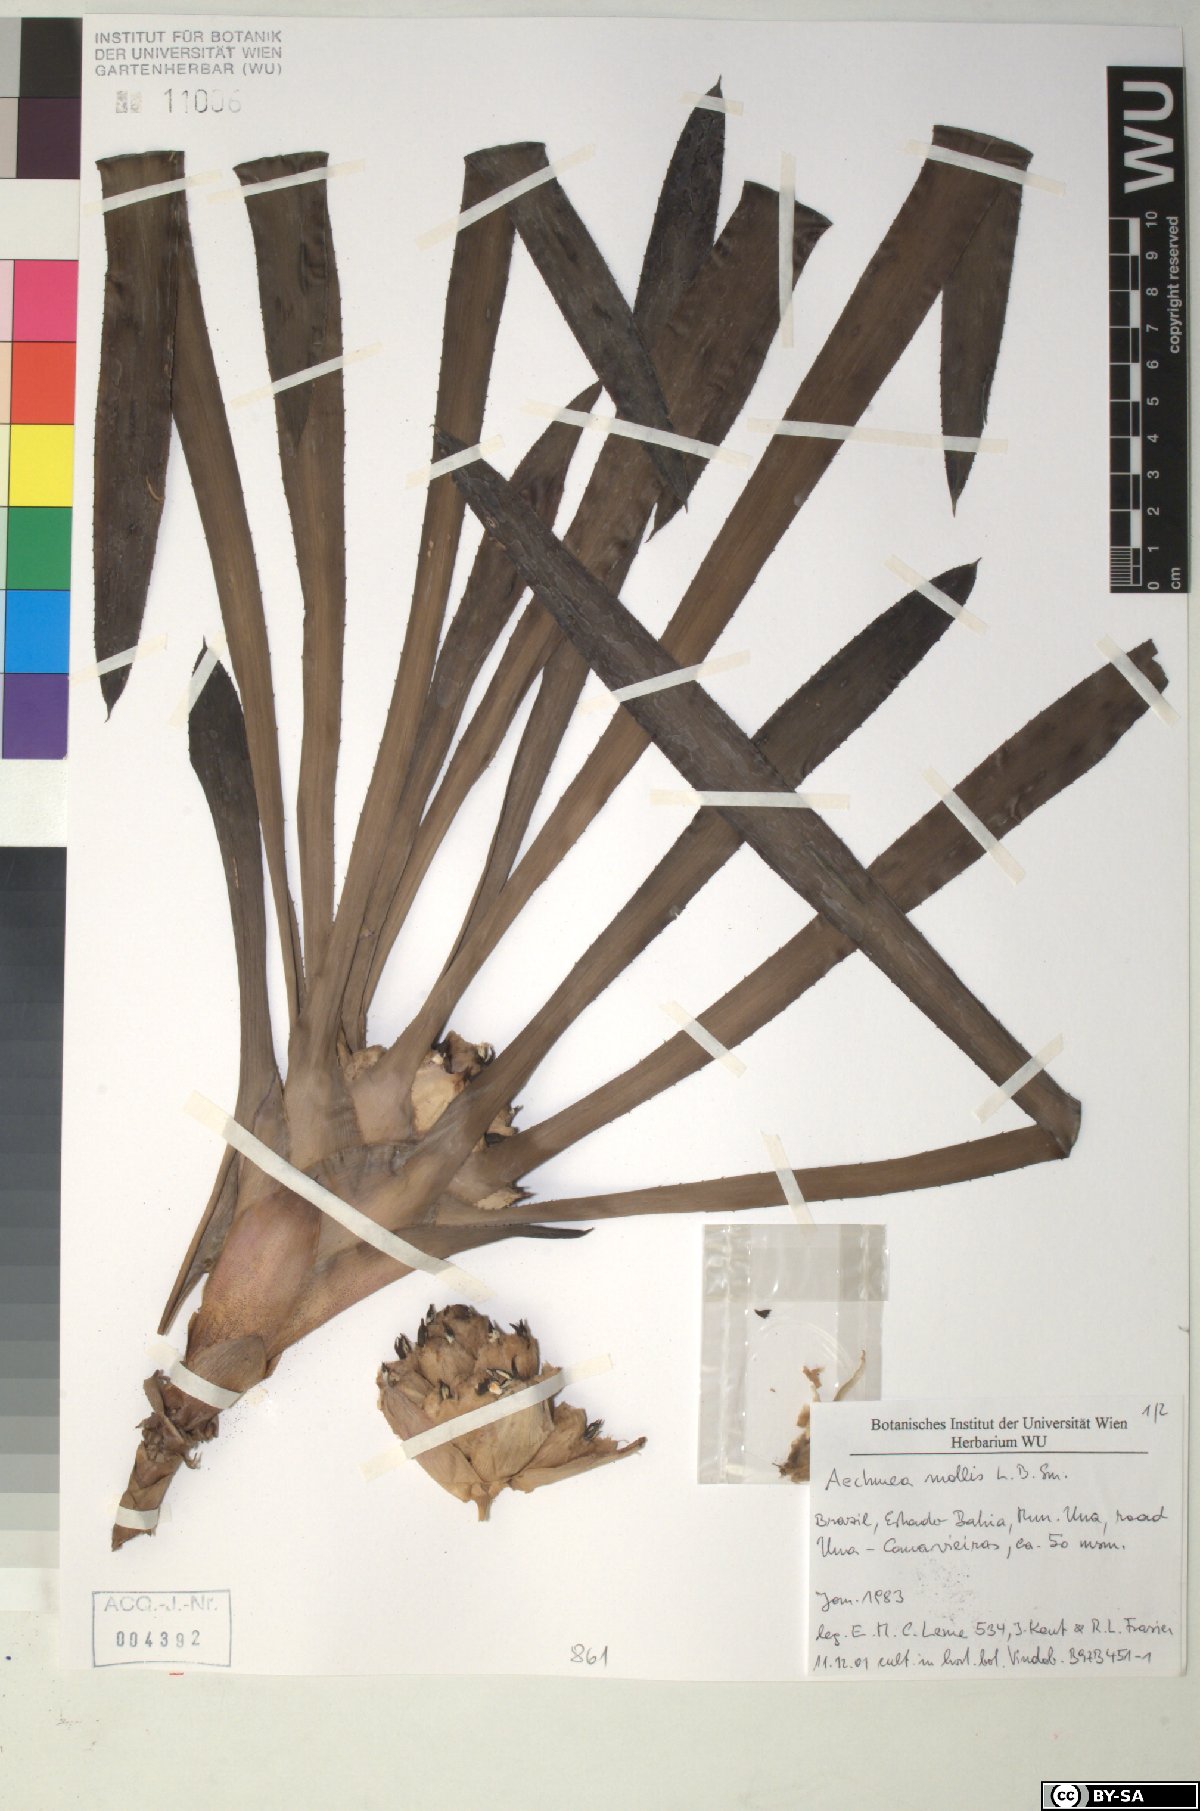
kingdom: Plantae
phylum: Tracheophyta
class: Liliopsida
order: Poales
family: Bromeliaceae
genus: Aechmea
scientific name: Aechmea mollis
